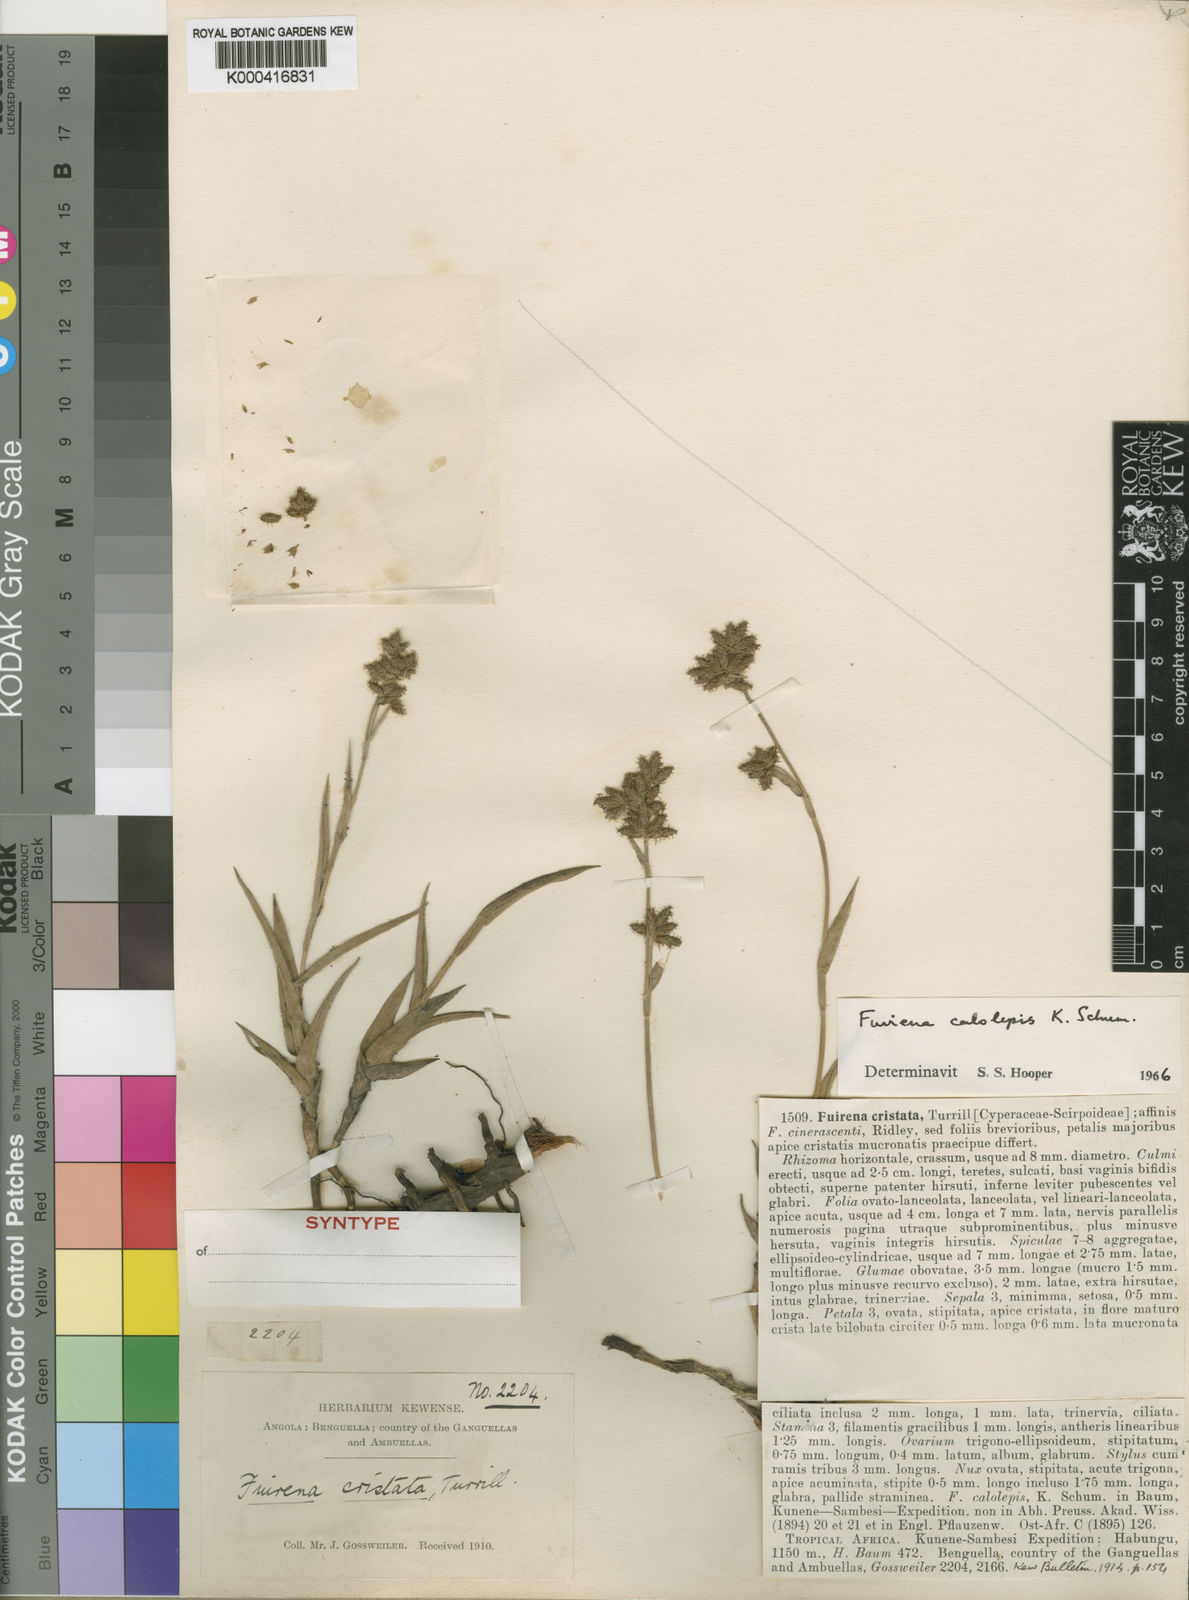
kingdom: Plantae
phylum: Tracheophyta
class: Liliopsida
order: Poales
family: Cyperaceae
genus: Fuirena
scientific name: Fuirena ochreata
